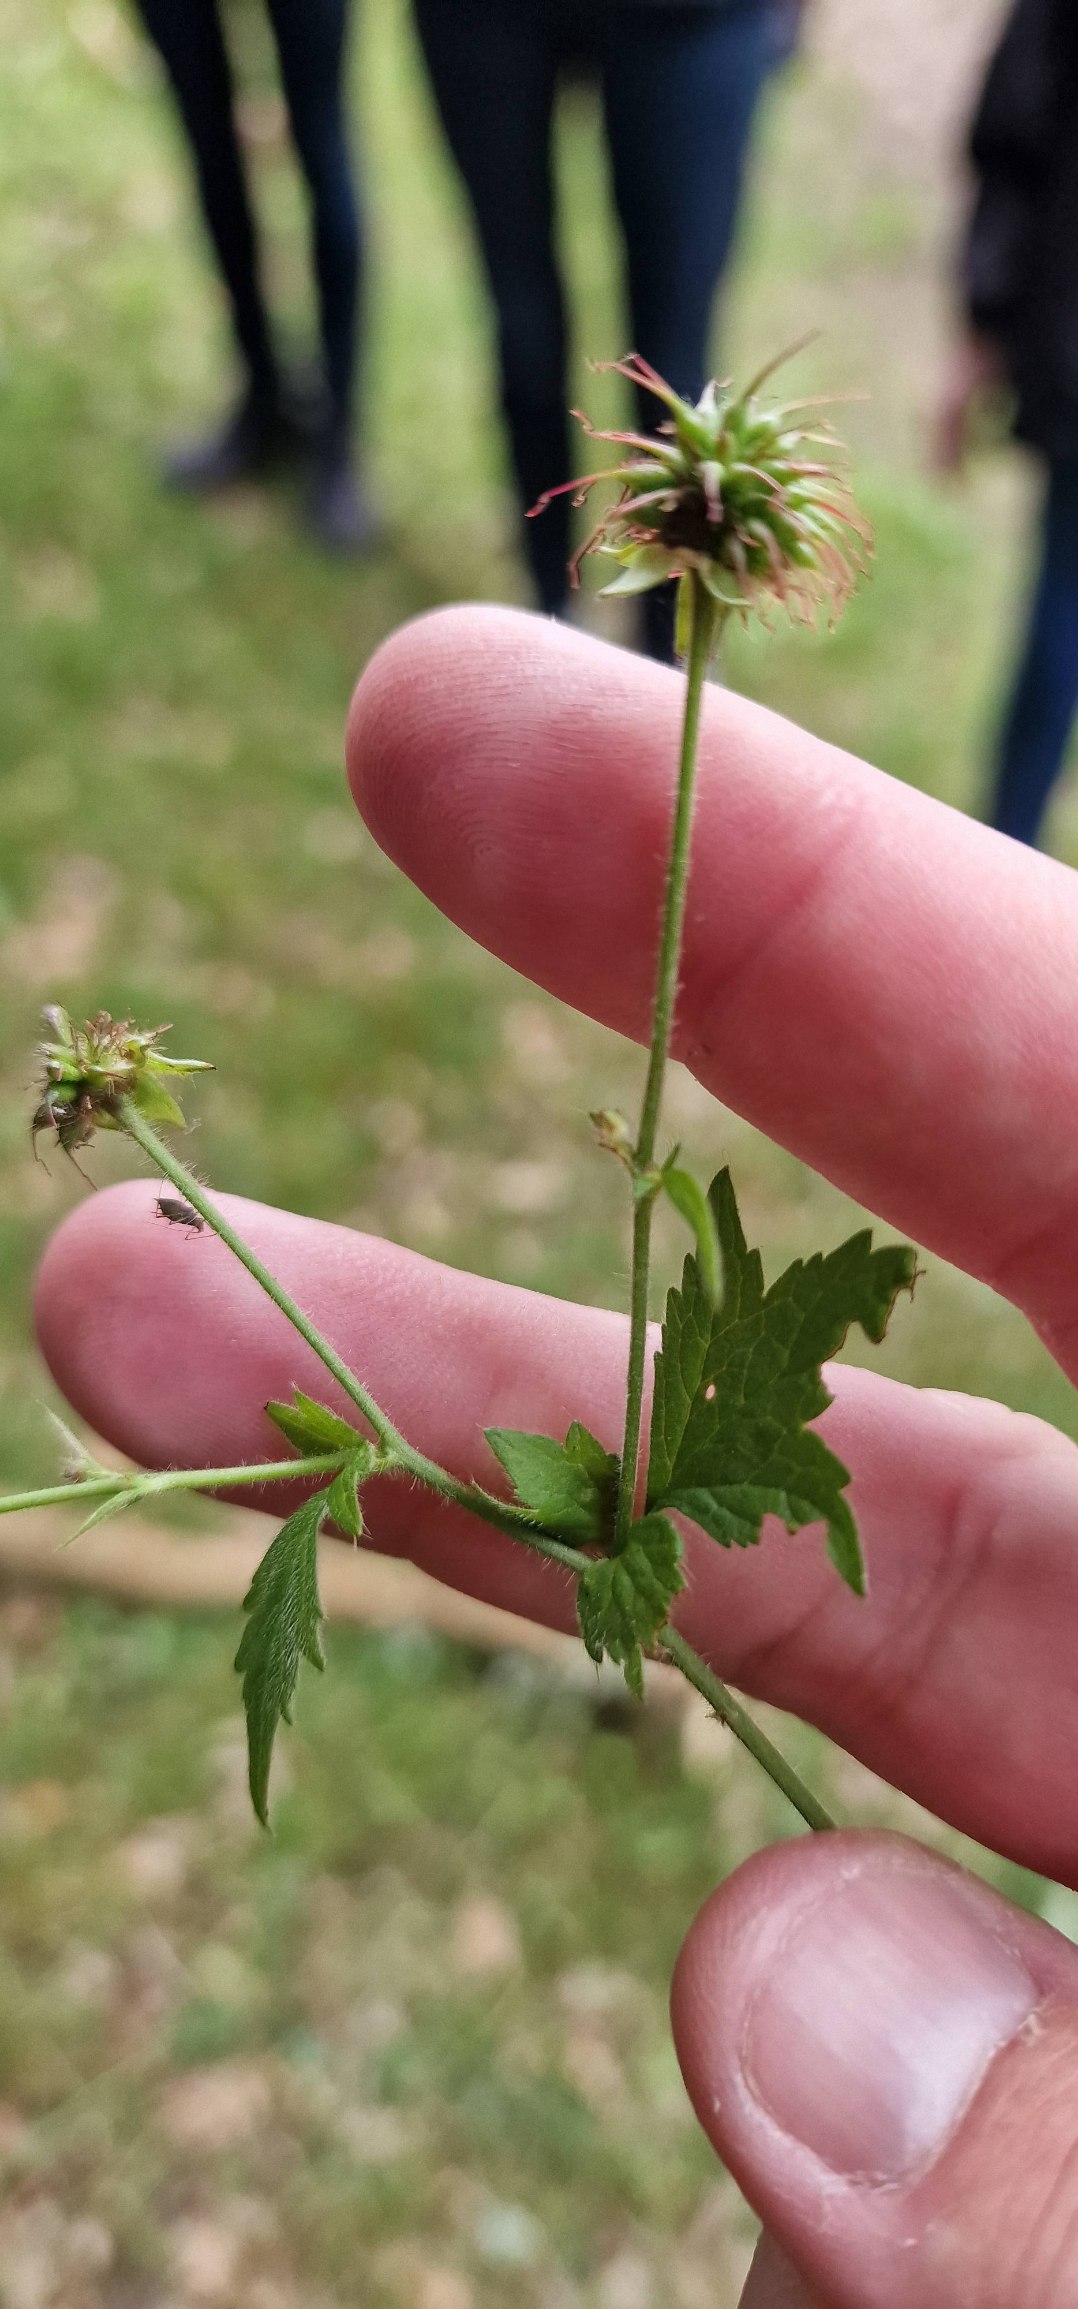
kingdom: Plantae
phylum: Tracheophyta
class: Magnoliopsida
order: Rosales
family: Rosaceae
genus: Geum
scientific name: Geum urbanum
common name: Feber-nellikerod
